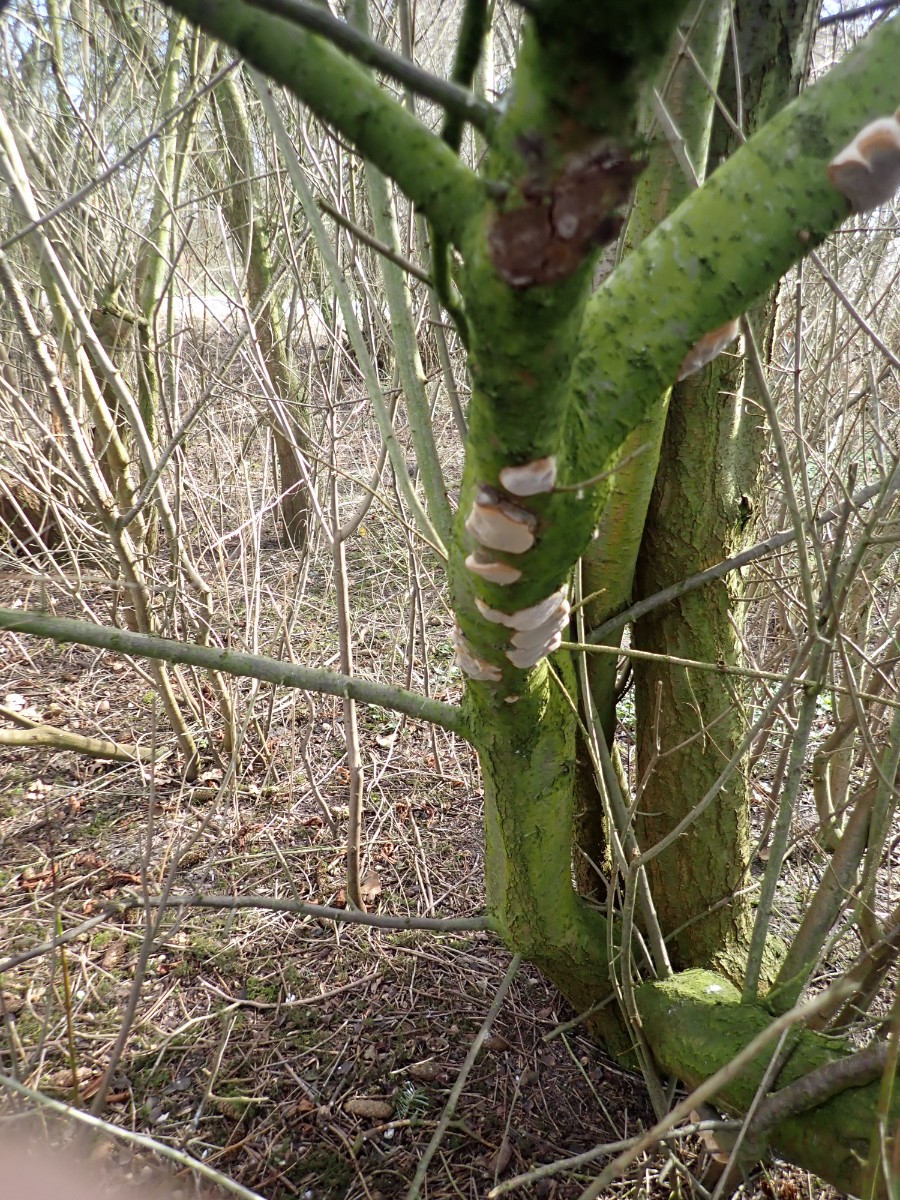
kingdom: Fungi
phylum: Basidiomycota
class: Agaricomycetes
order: Hymenochaetales
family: Hymenochaetaceae
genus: Phellinus
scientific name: Phellinus pomaceus
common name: blomme-ildporesvamp
